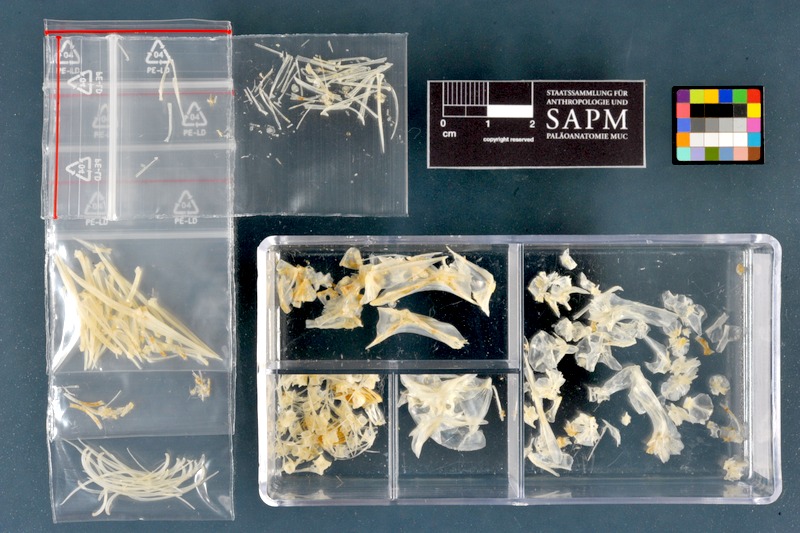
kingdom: Animalia
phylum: Chordata
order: Perciformes
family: Percidae
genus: Gymnocephalus
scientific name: Gymnocephalus cernua
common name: Ruffe
